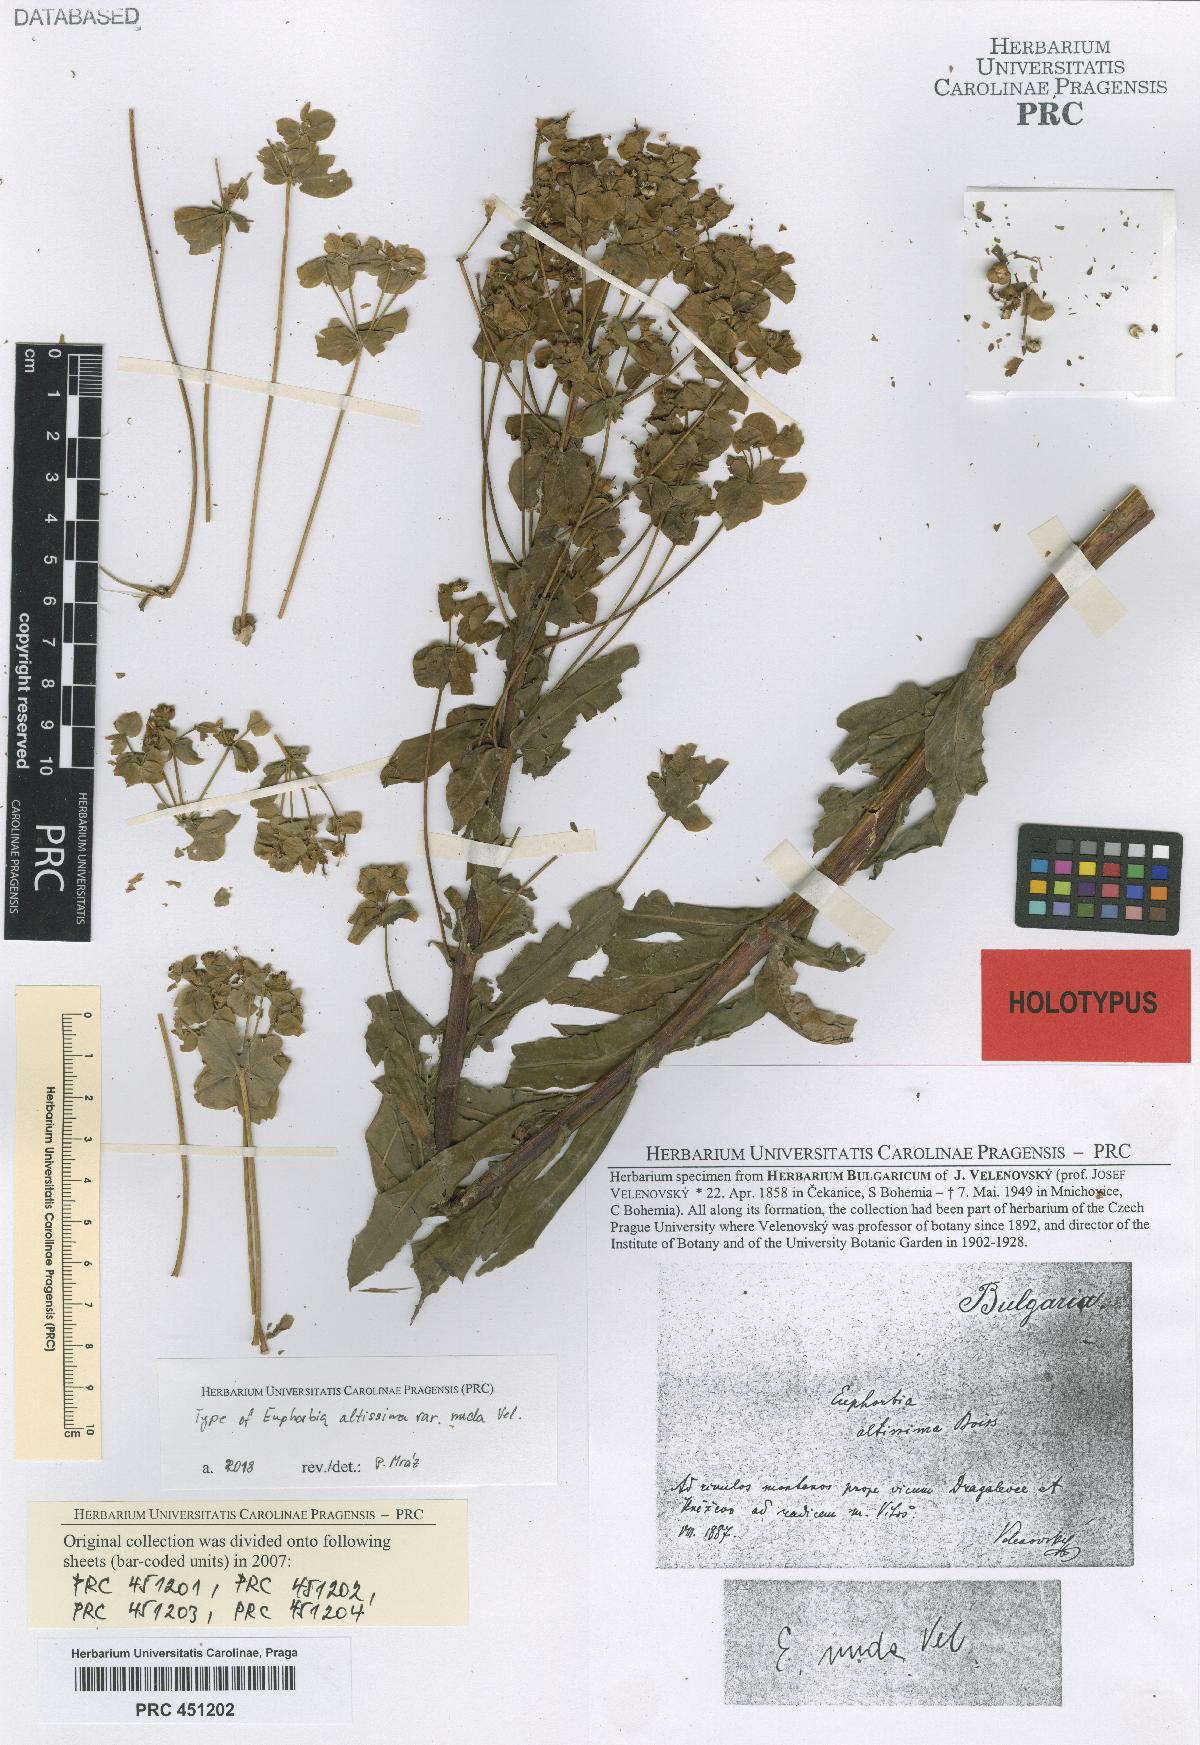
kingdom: Plantae
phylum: Tracheophyta
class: Magnoliopsida
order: Malpighiales
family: Euphorbiaceae
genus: Euphorbia
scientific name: Euphorbia altissima
